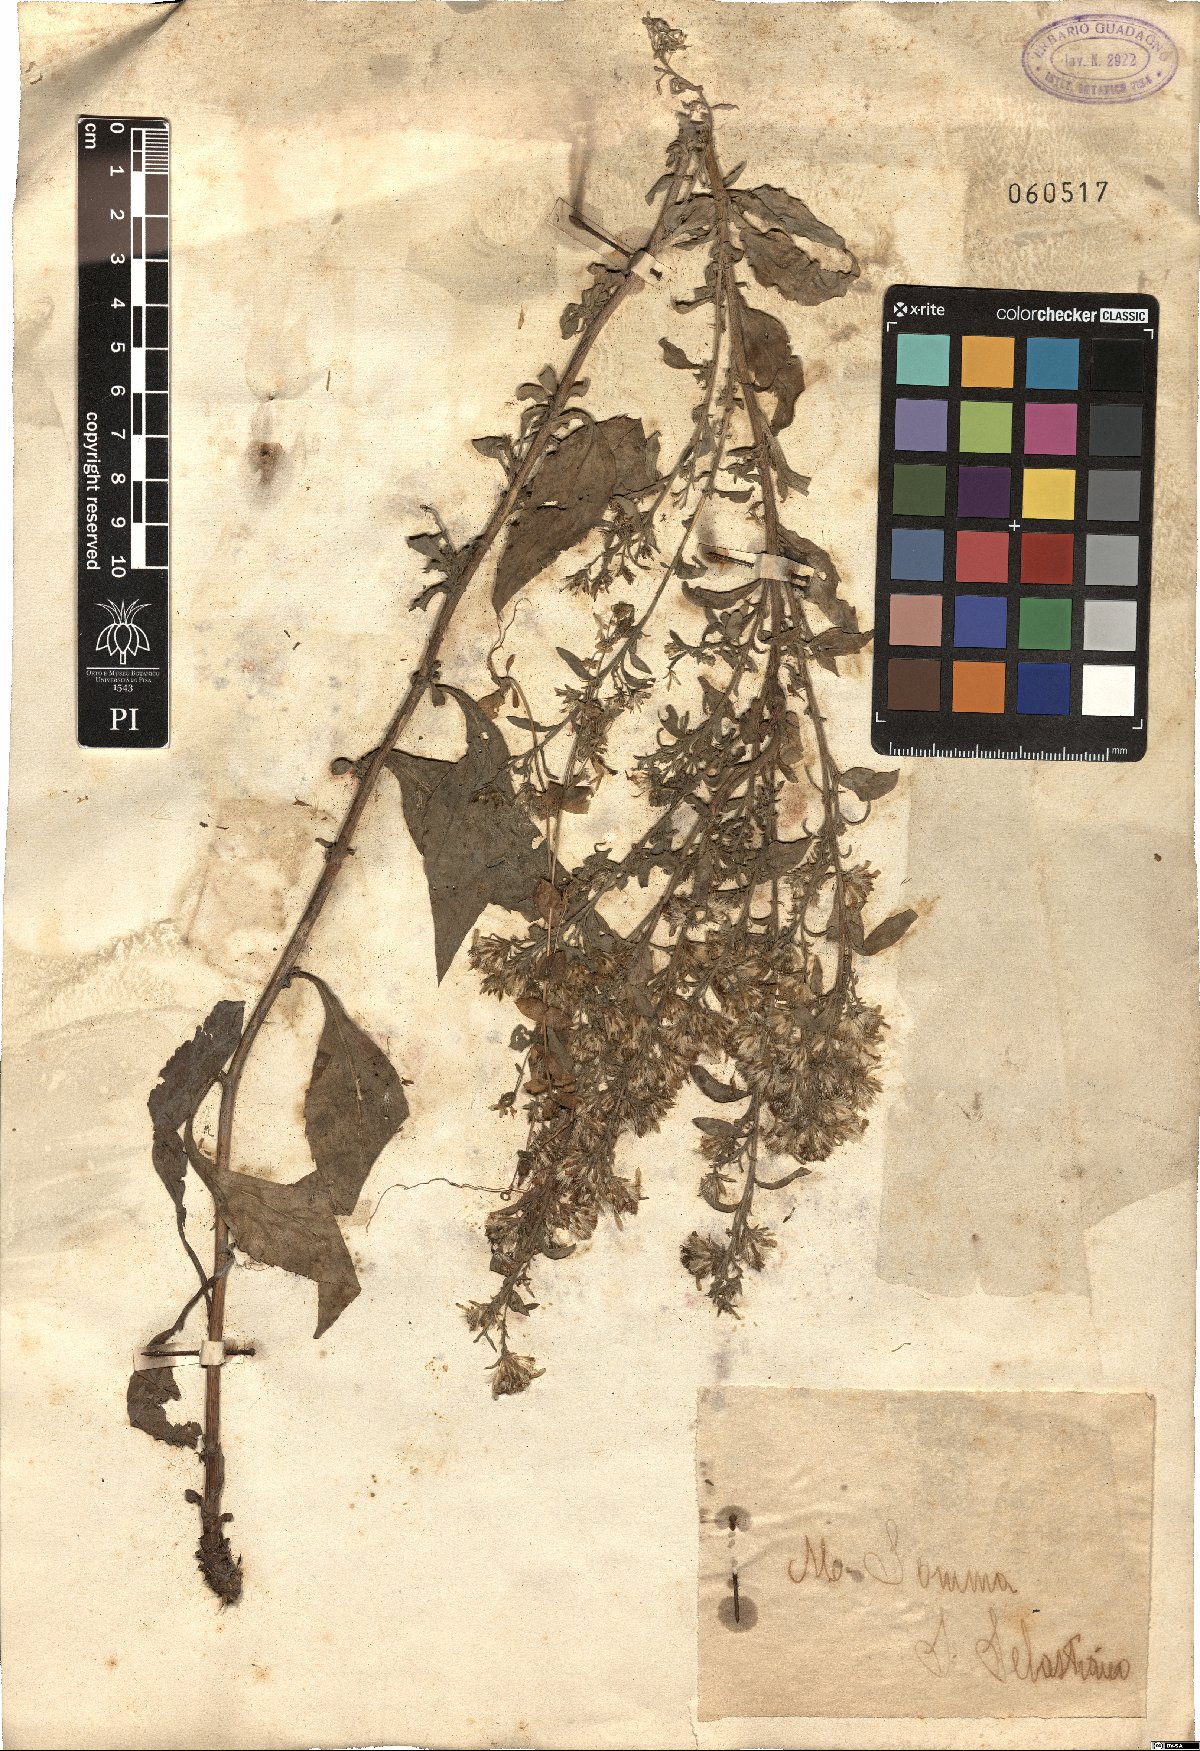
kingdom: Plantae
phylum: Tracheophyta
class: Magnoliopsida
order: Asterales
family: Asteraceae
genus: Pentanema
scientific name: Pentanema squarrosum
